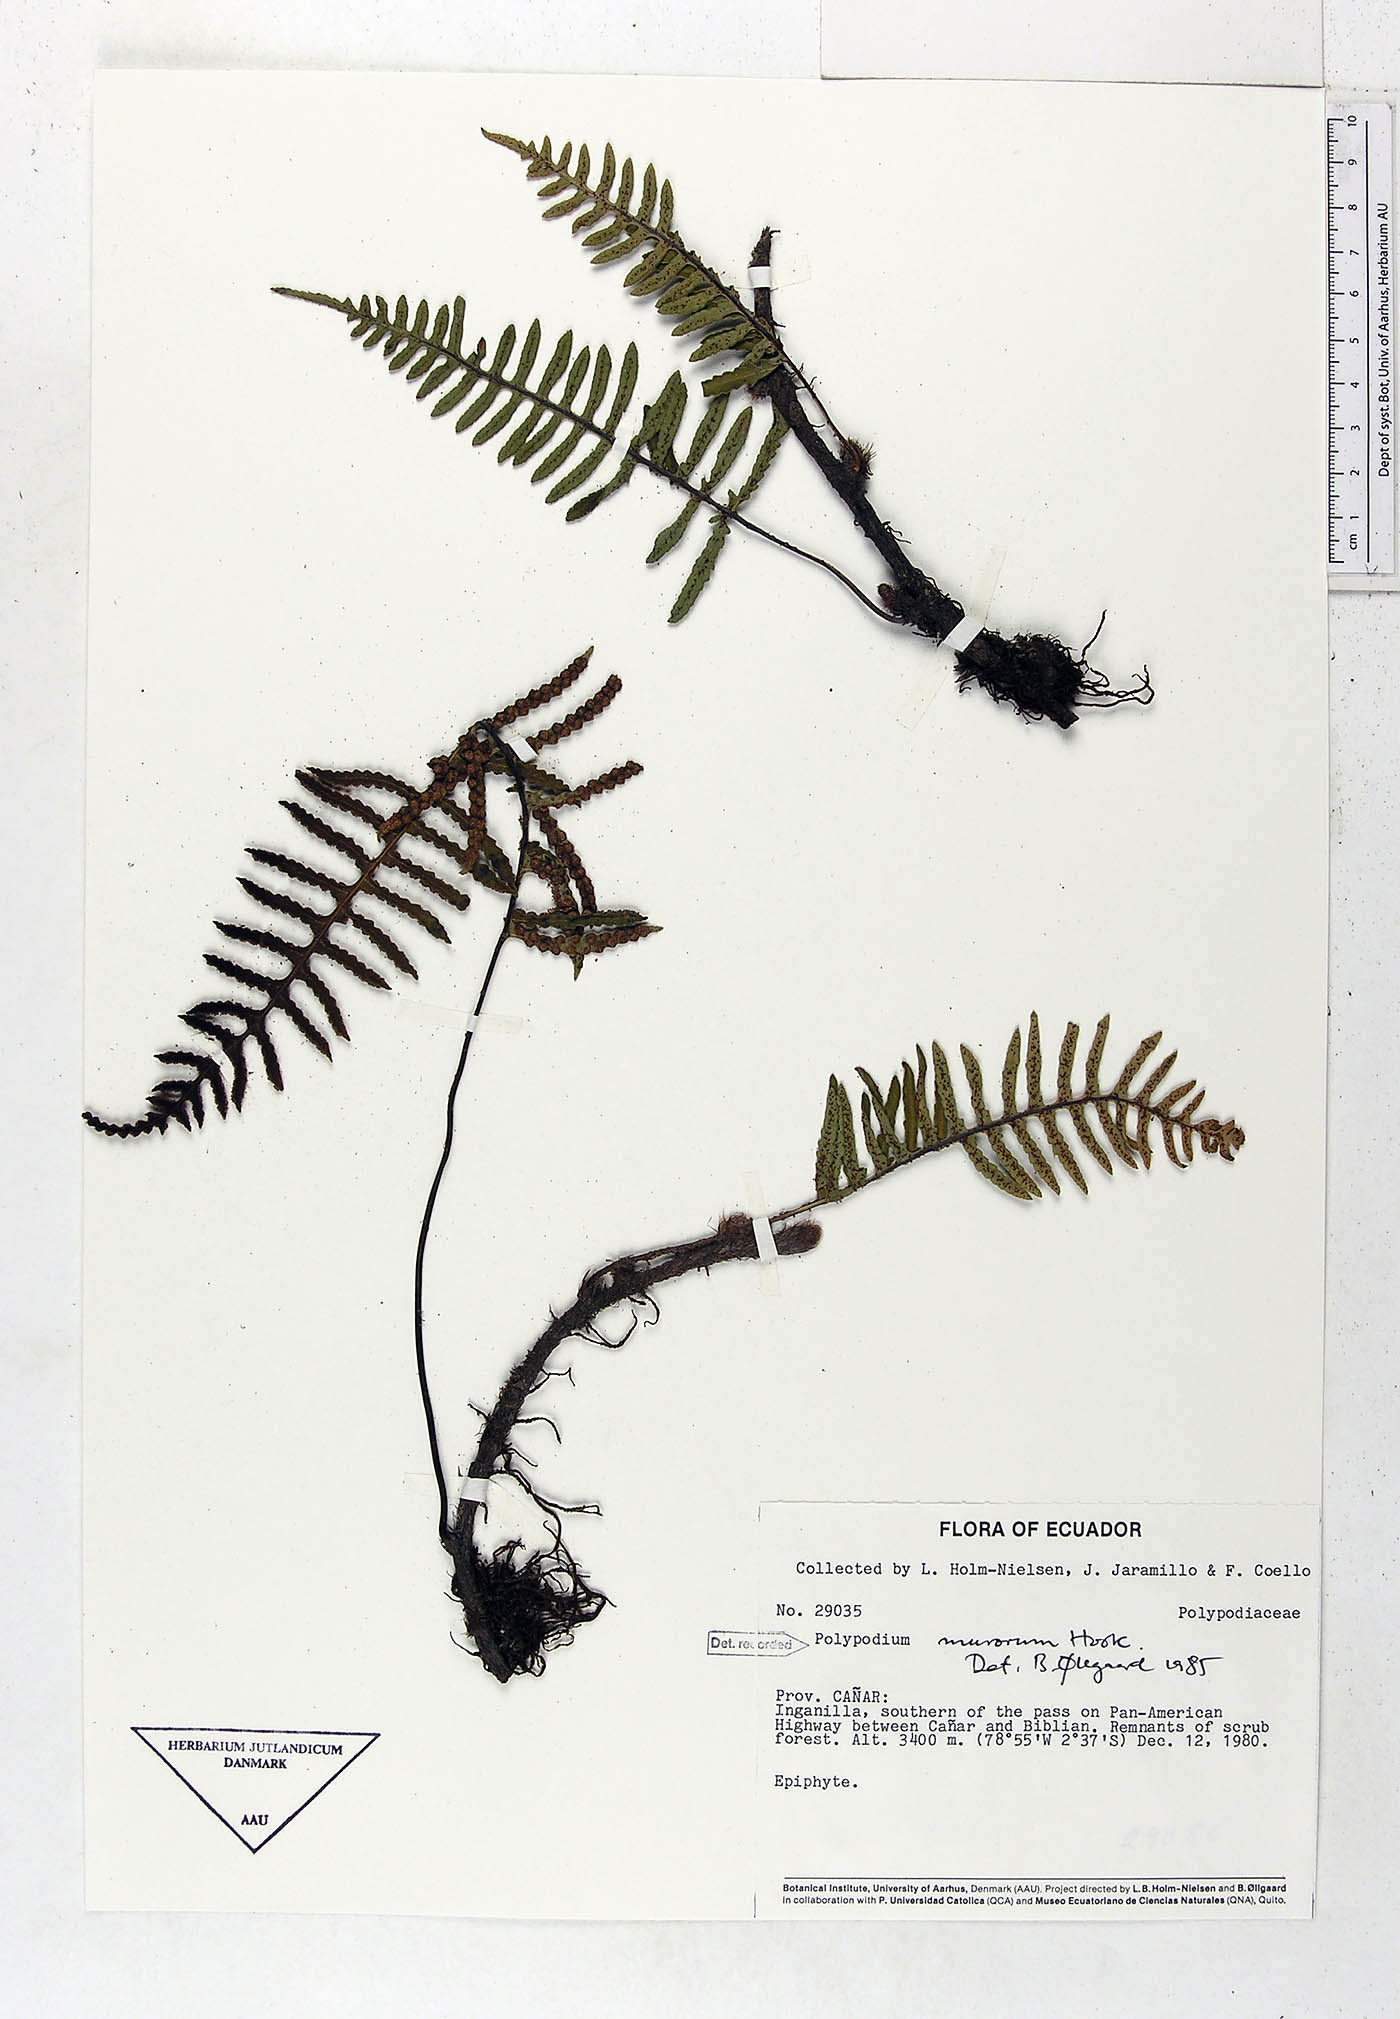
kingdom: Plantae
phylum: Tracheophyta
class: Polypodiopsida
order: Polypodiales
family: Polypodiaceae
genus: Pleopeltis
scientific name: Pleopeltis murora
